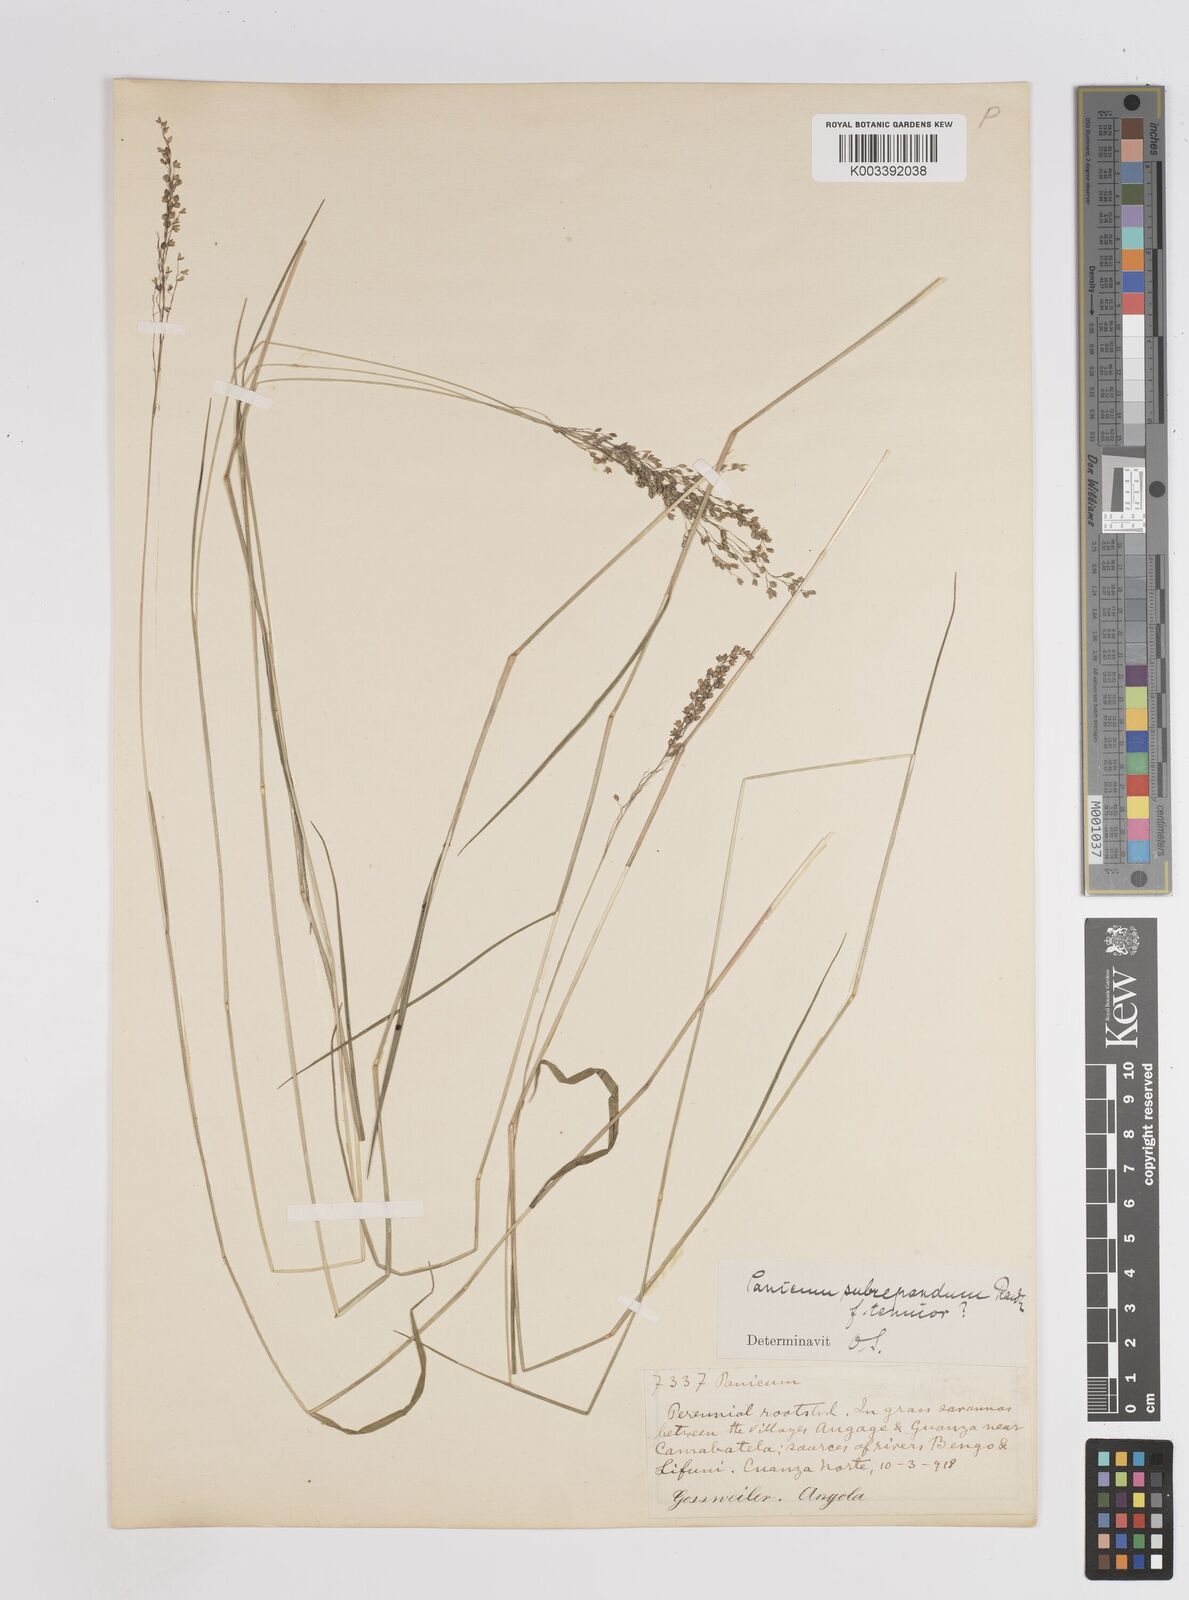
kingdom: Plantae
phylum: Tracheophyta
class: Liliopsida
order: Poales
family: Poaceae
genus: Trichanthecium
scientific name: Trichanthecium nervatum
